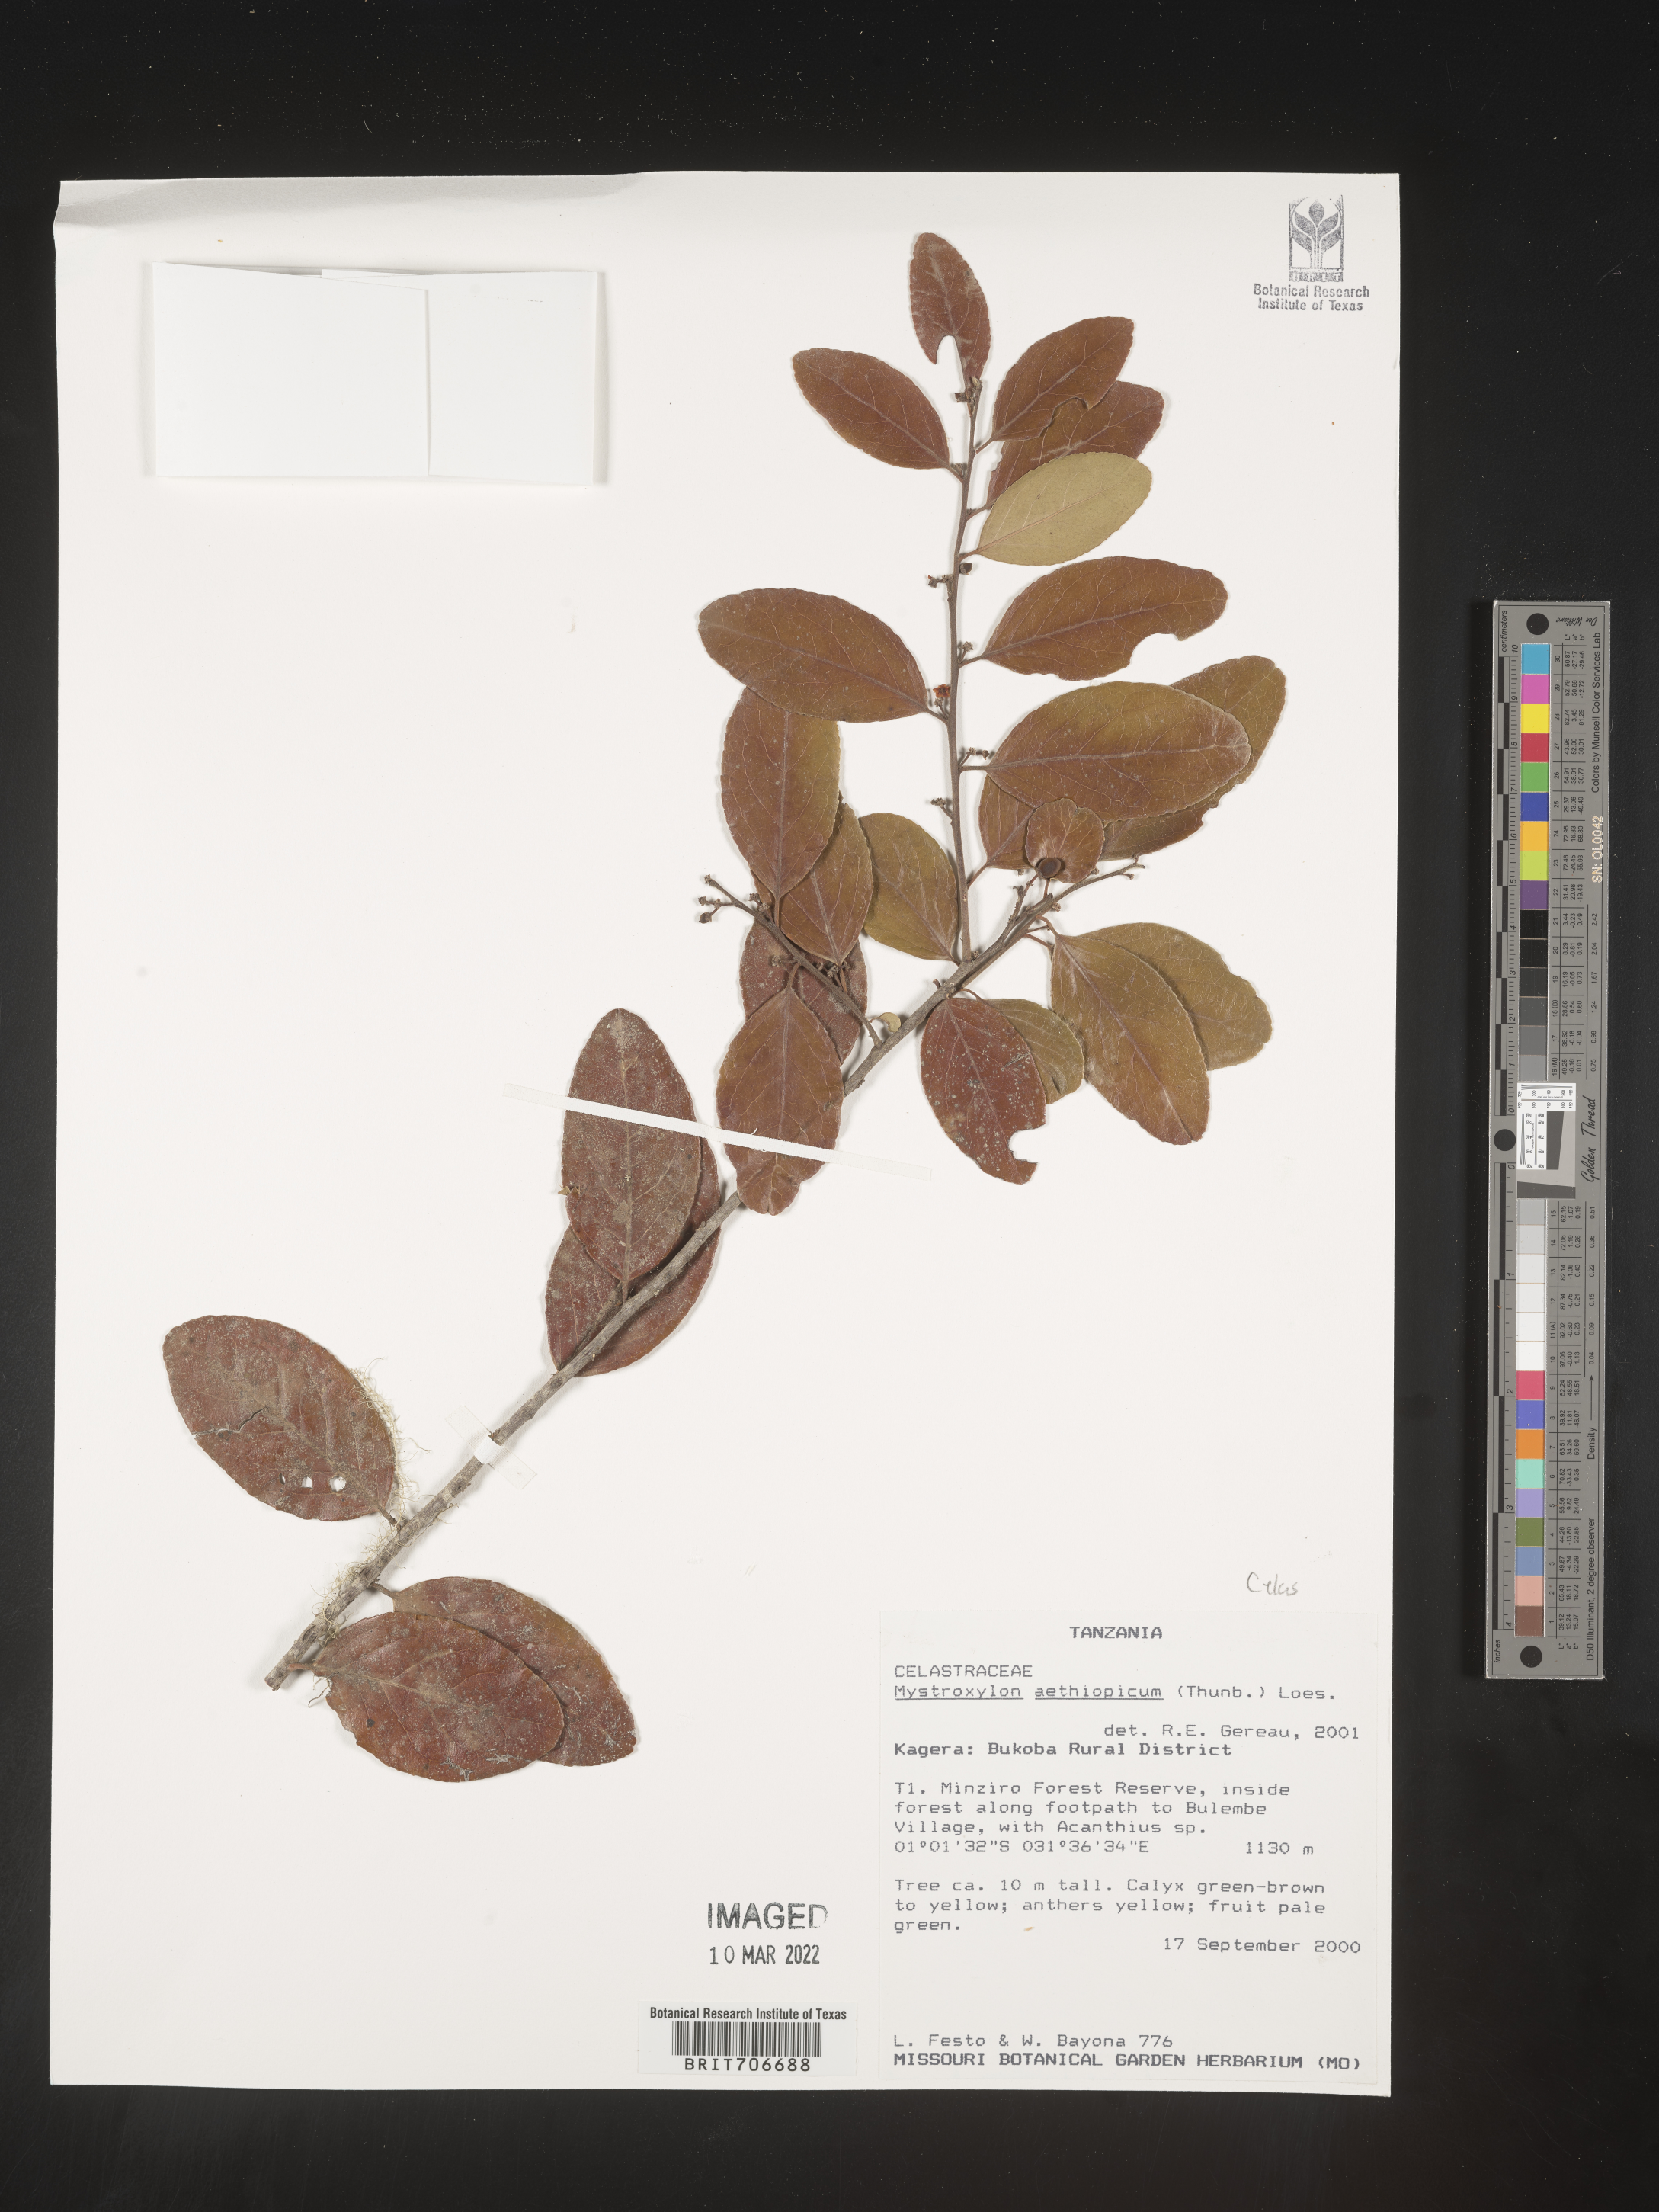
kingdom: Plantae
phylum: Tracheophyta
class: Magnoliopsida
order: Celastrales
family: Celastraceae
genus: Mystroxylon
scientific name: Mystroxylon
